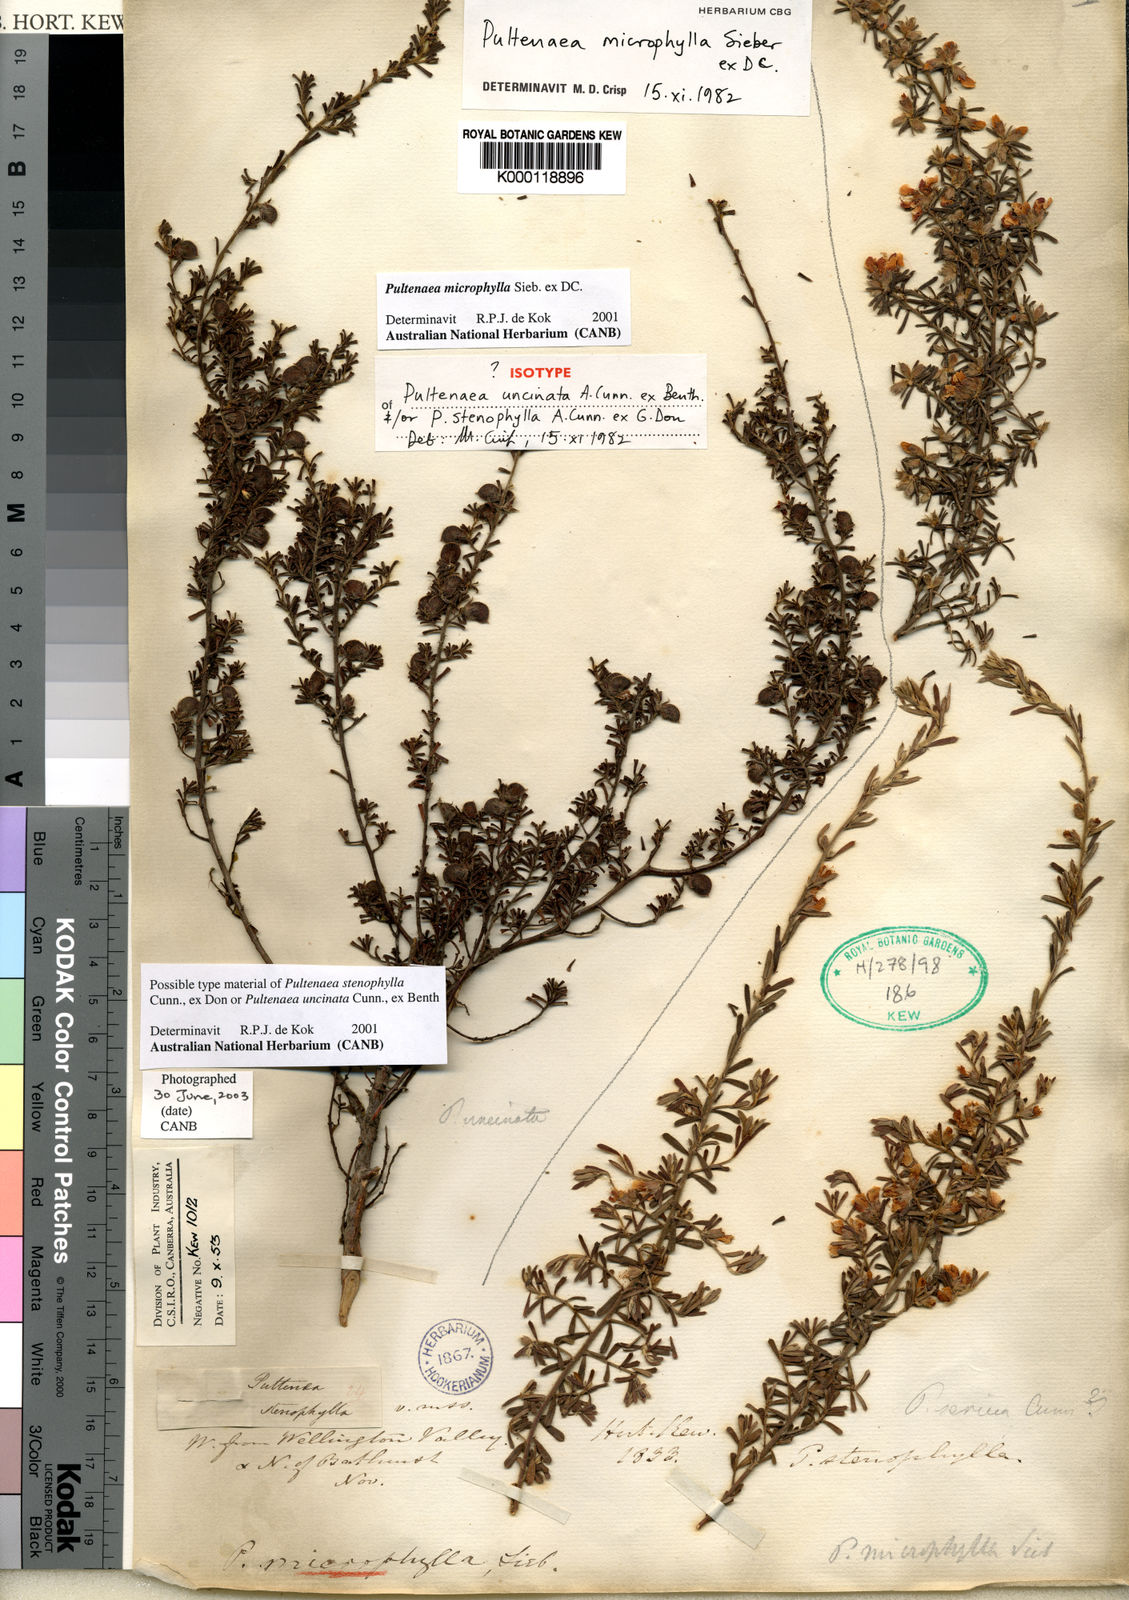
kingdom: Plantae
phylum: Tracheophyta
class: Magnoliopsida
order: Fabales
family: Fabaceae
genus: Pultenaea
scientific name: Pultenaea microphylla
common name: Spreading bush-pea
